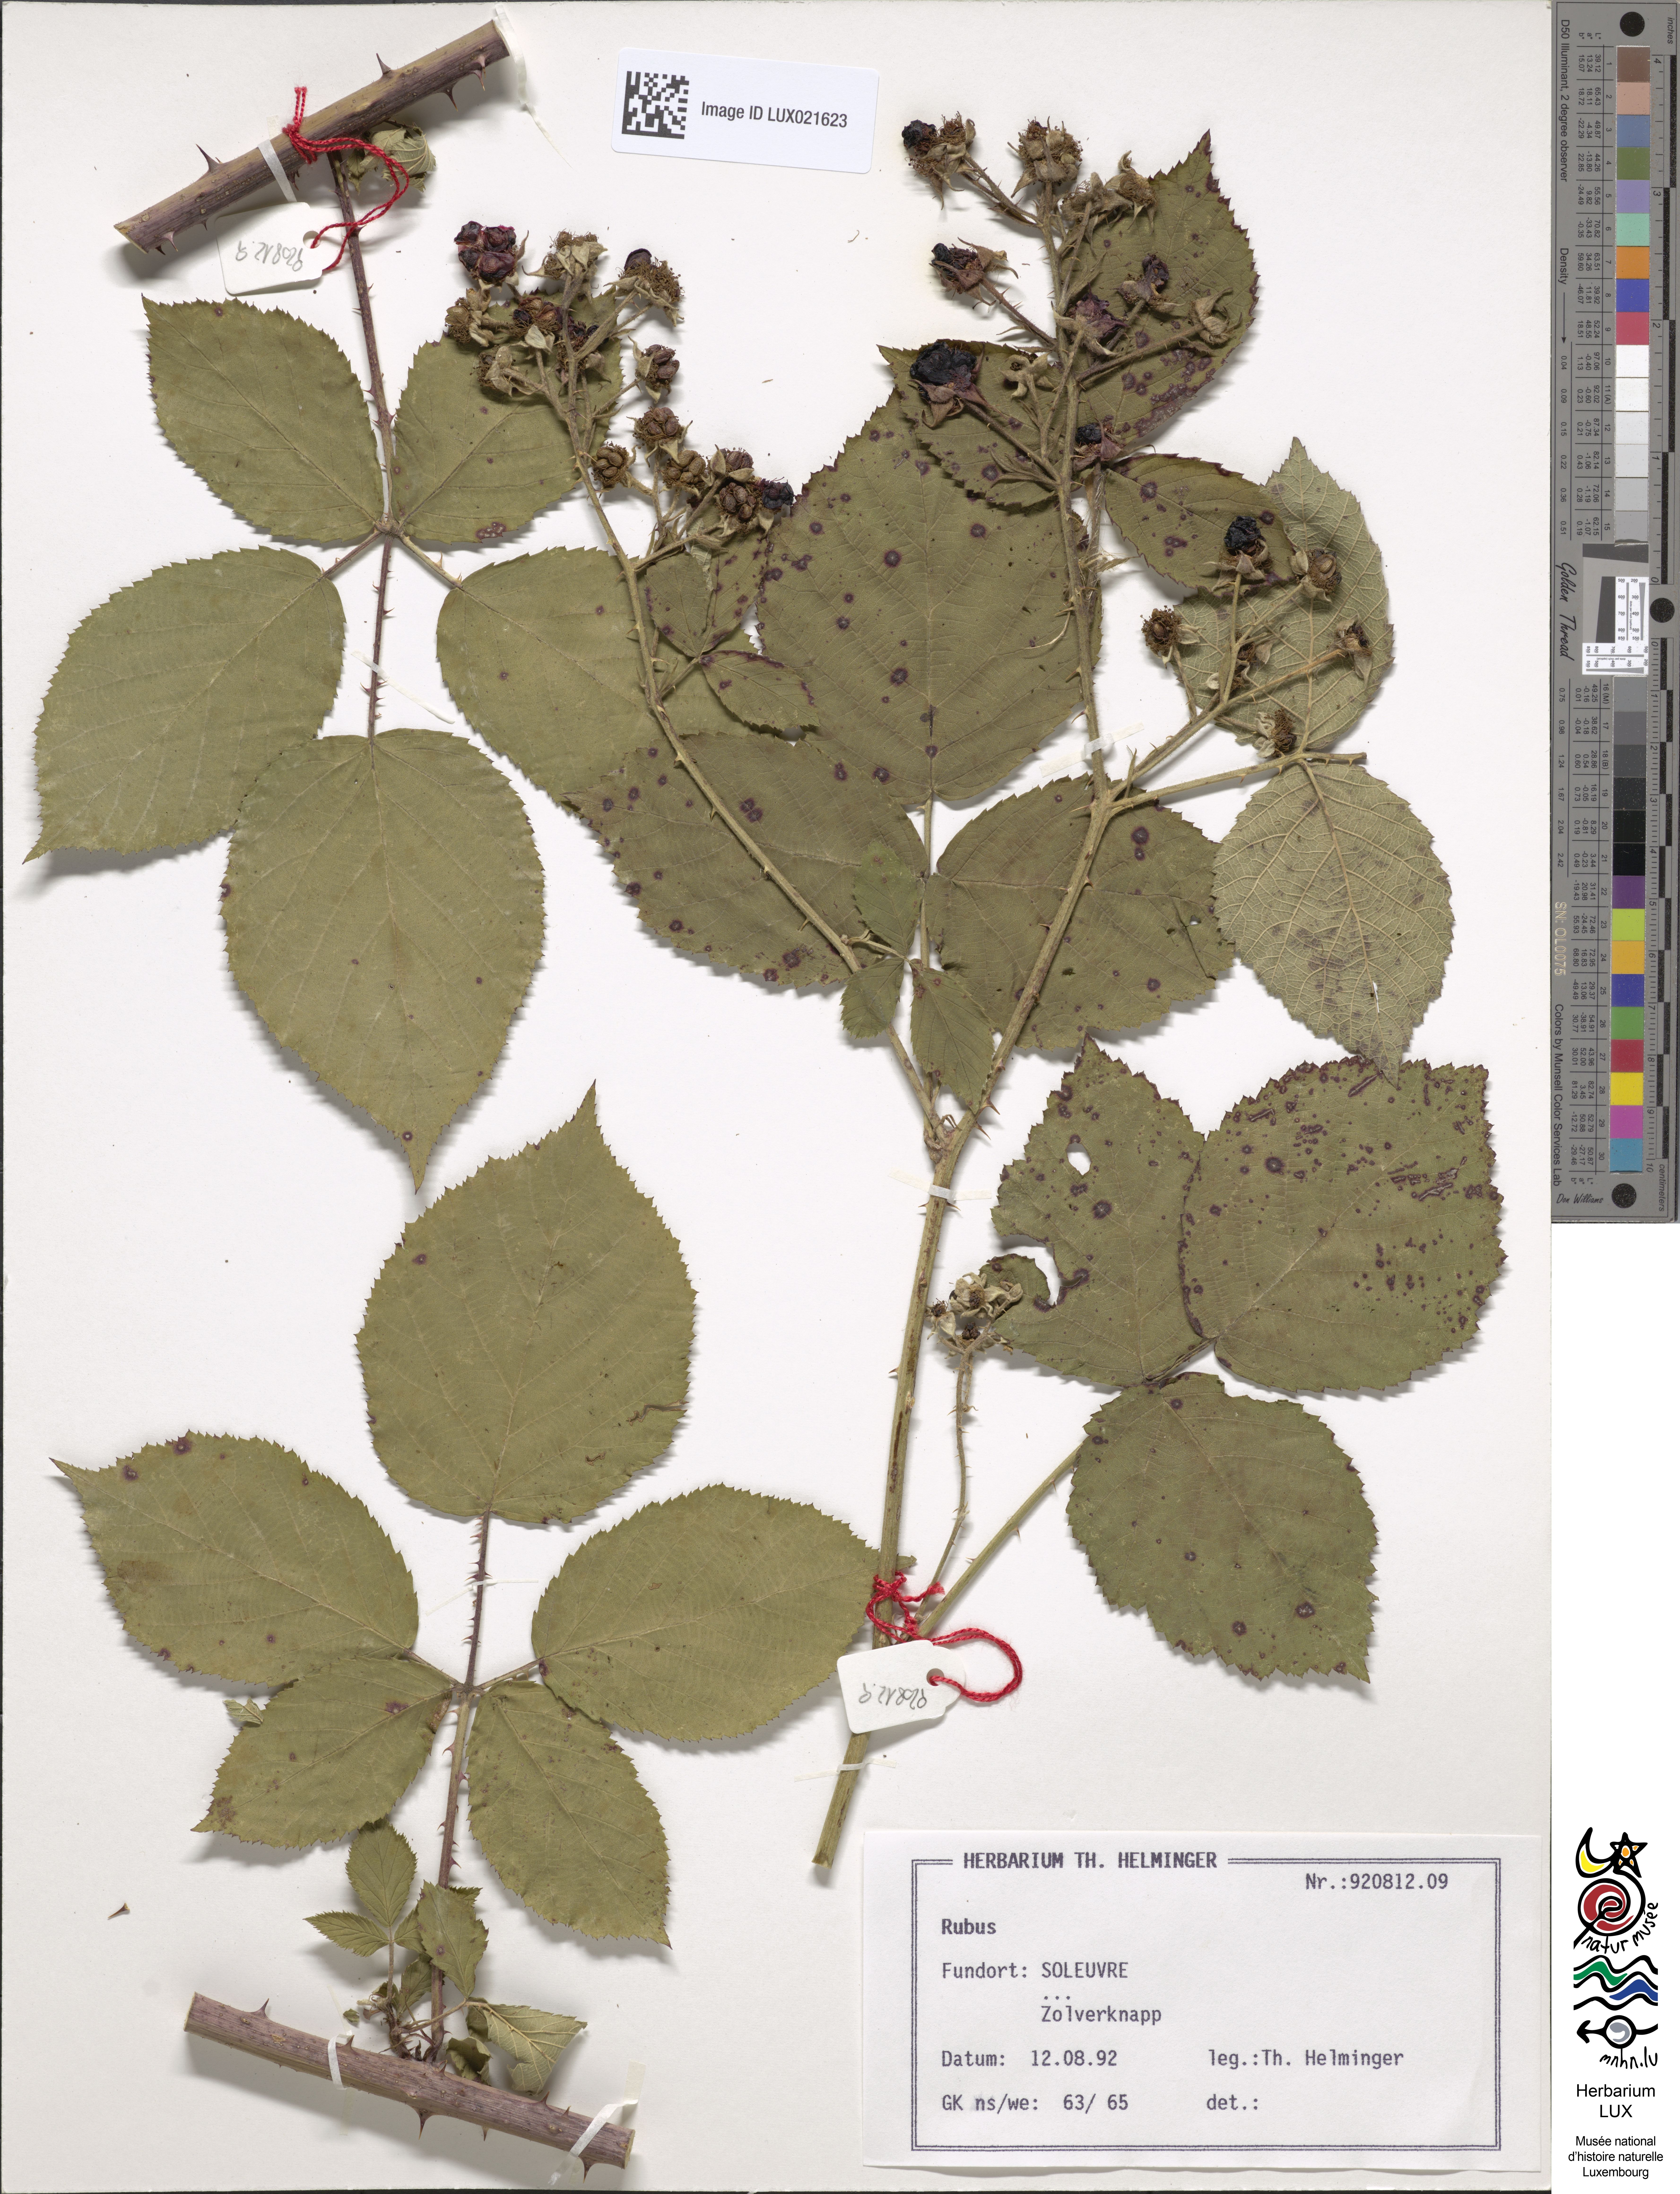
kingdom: Plantae
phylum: Tracheophyta
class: Magnoliopsida
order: Rosales
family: Rosaceae
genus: Rubus
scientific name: Rubus
